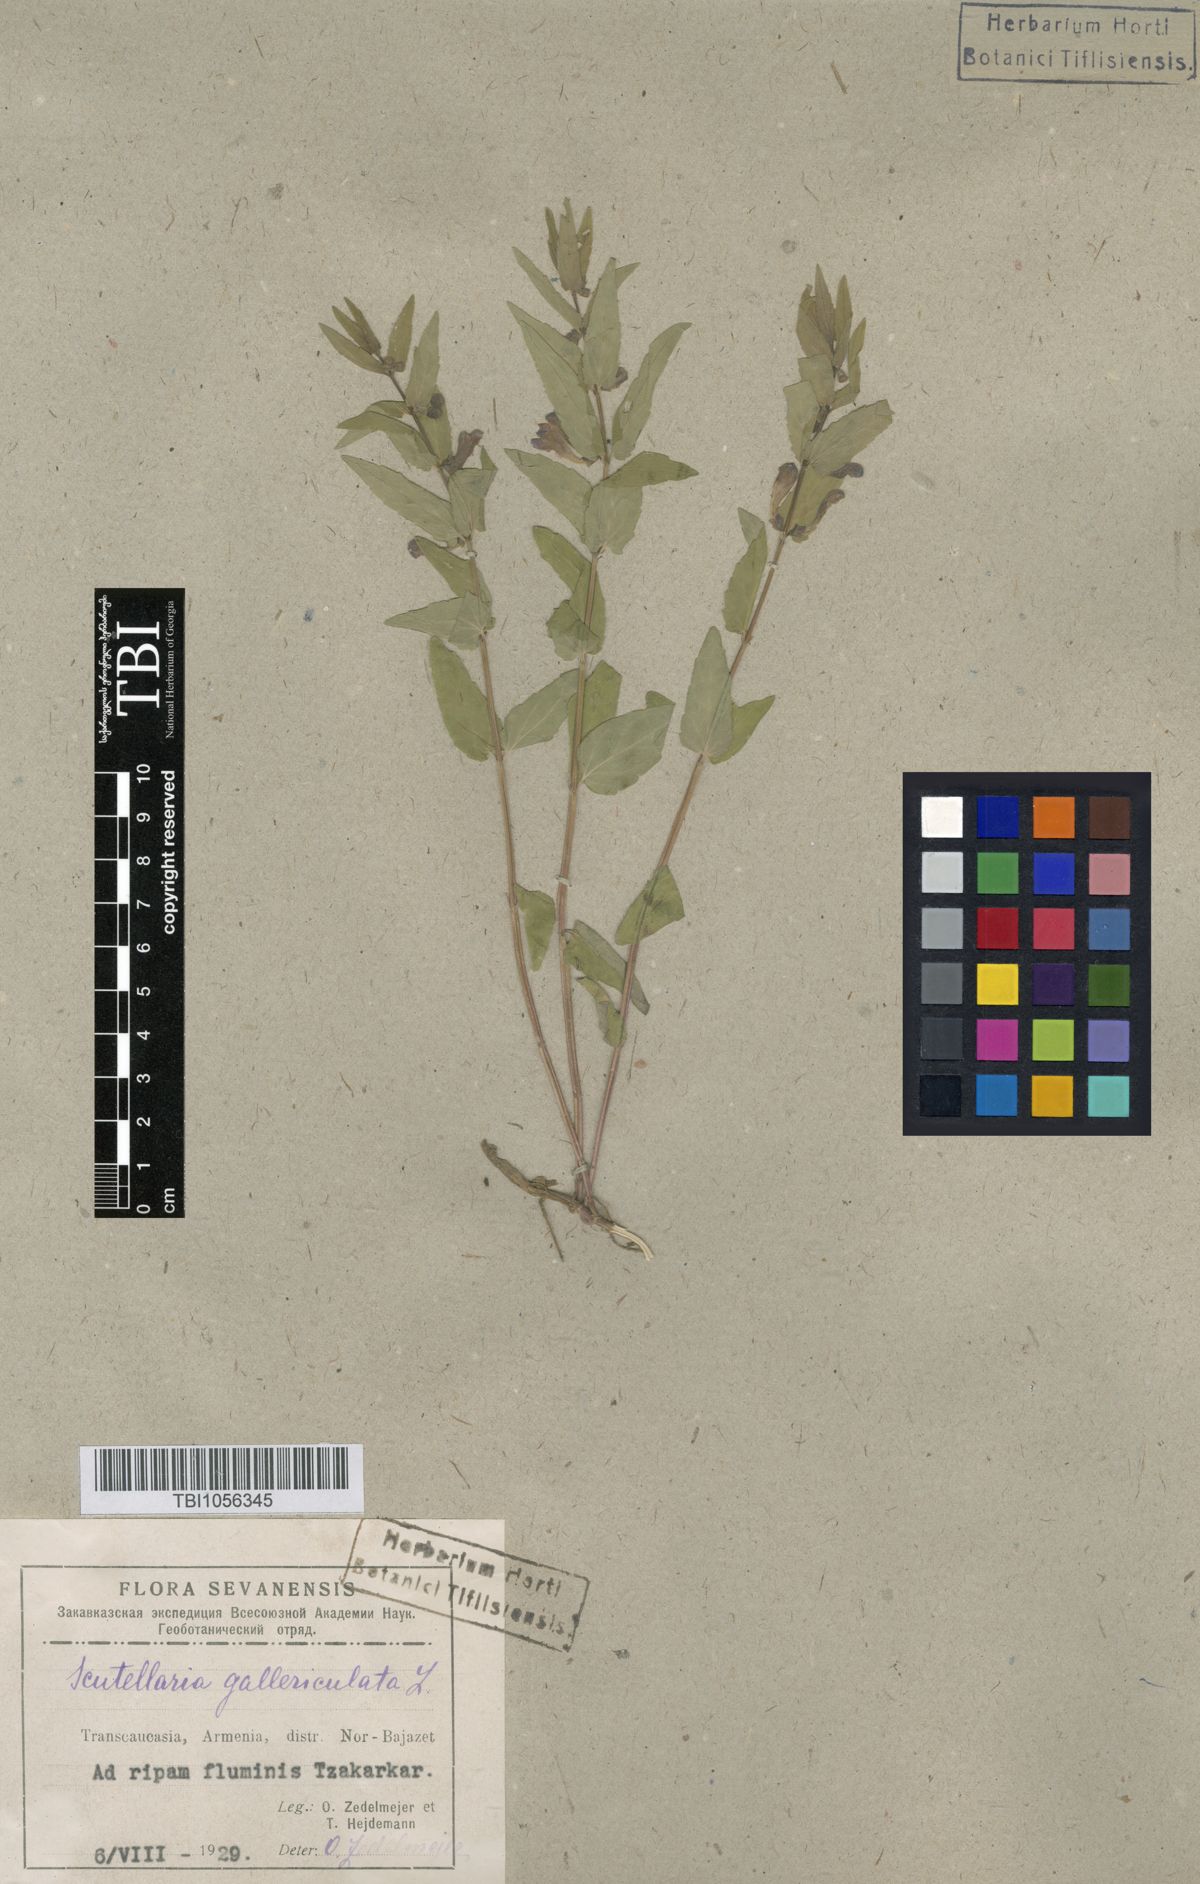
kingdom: Plantae
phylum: Tracheophyta
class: Magnoliopsida
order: Lamiales
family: Lamiaceae
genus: Scutellaria
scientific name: Scutellaria galericulata
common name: Skullcap
